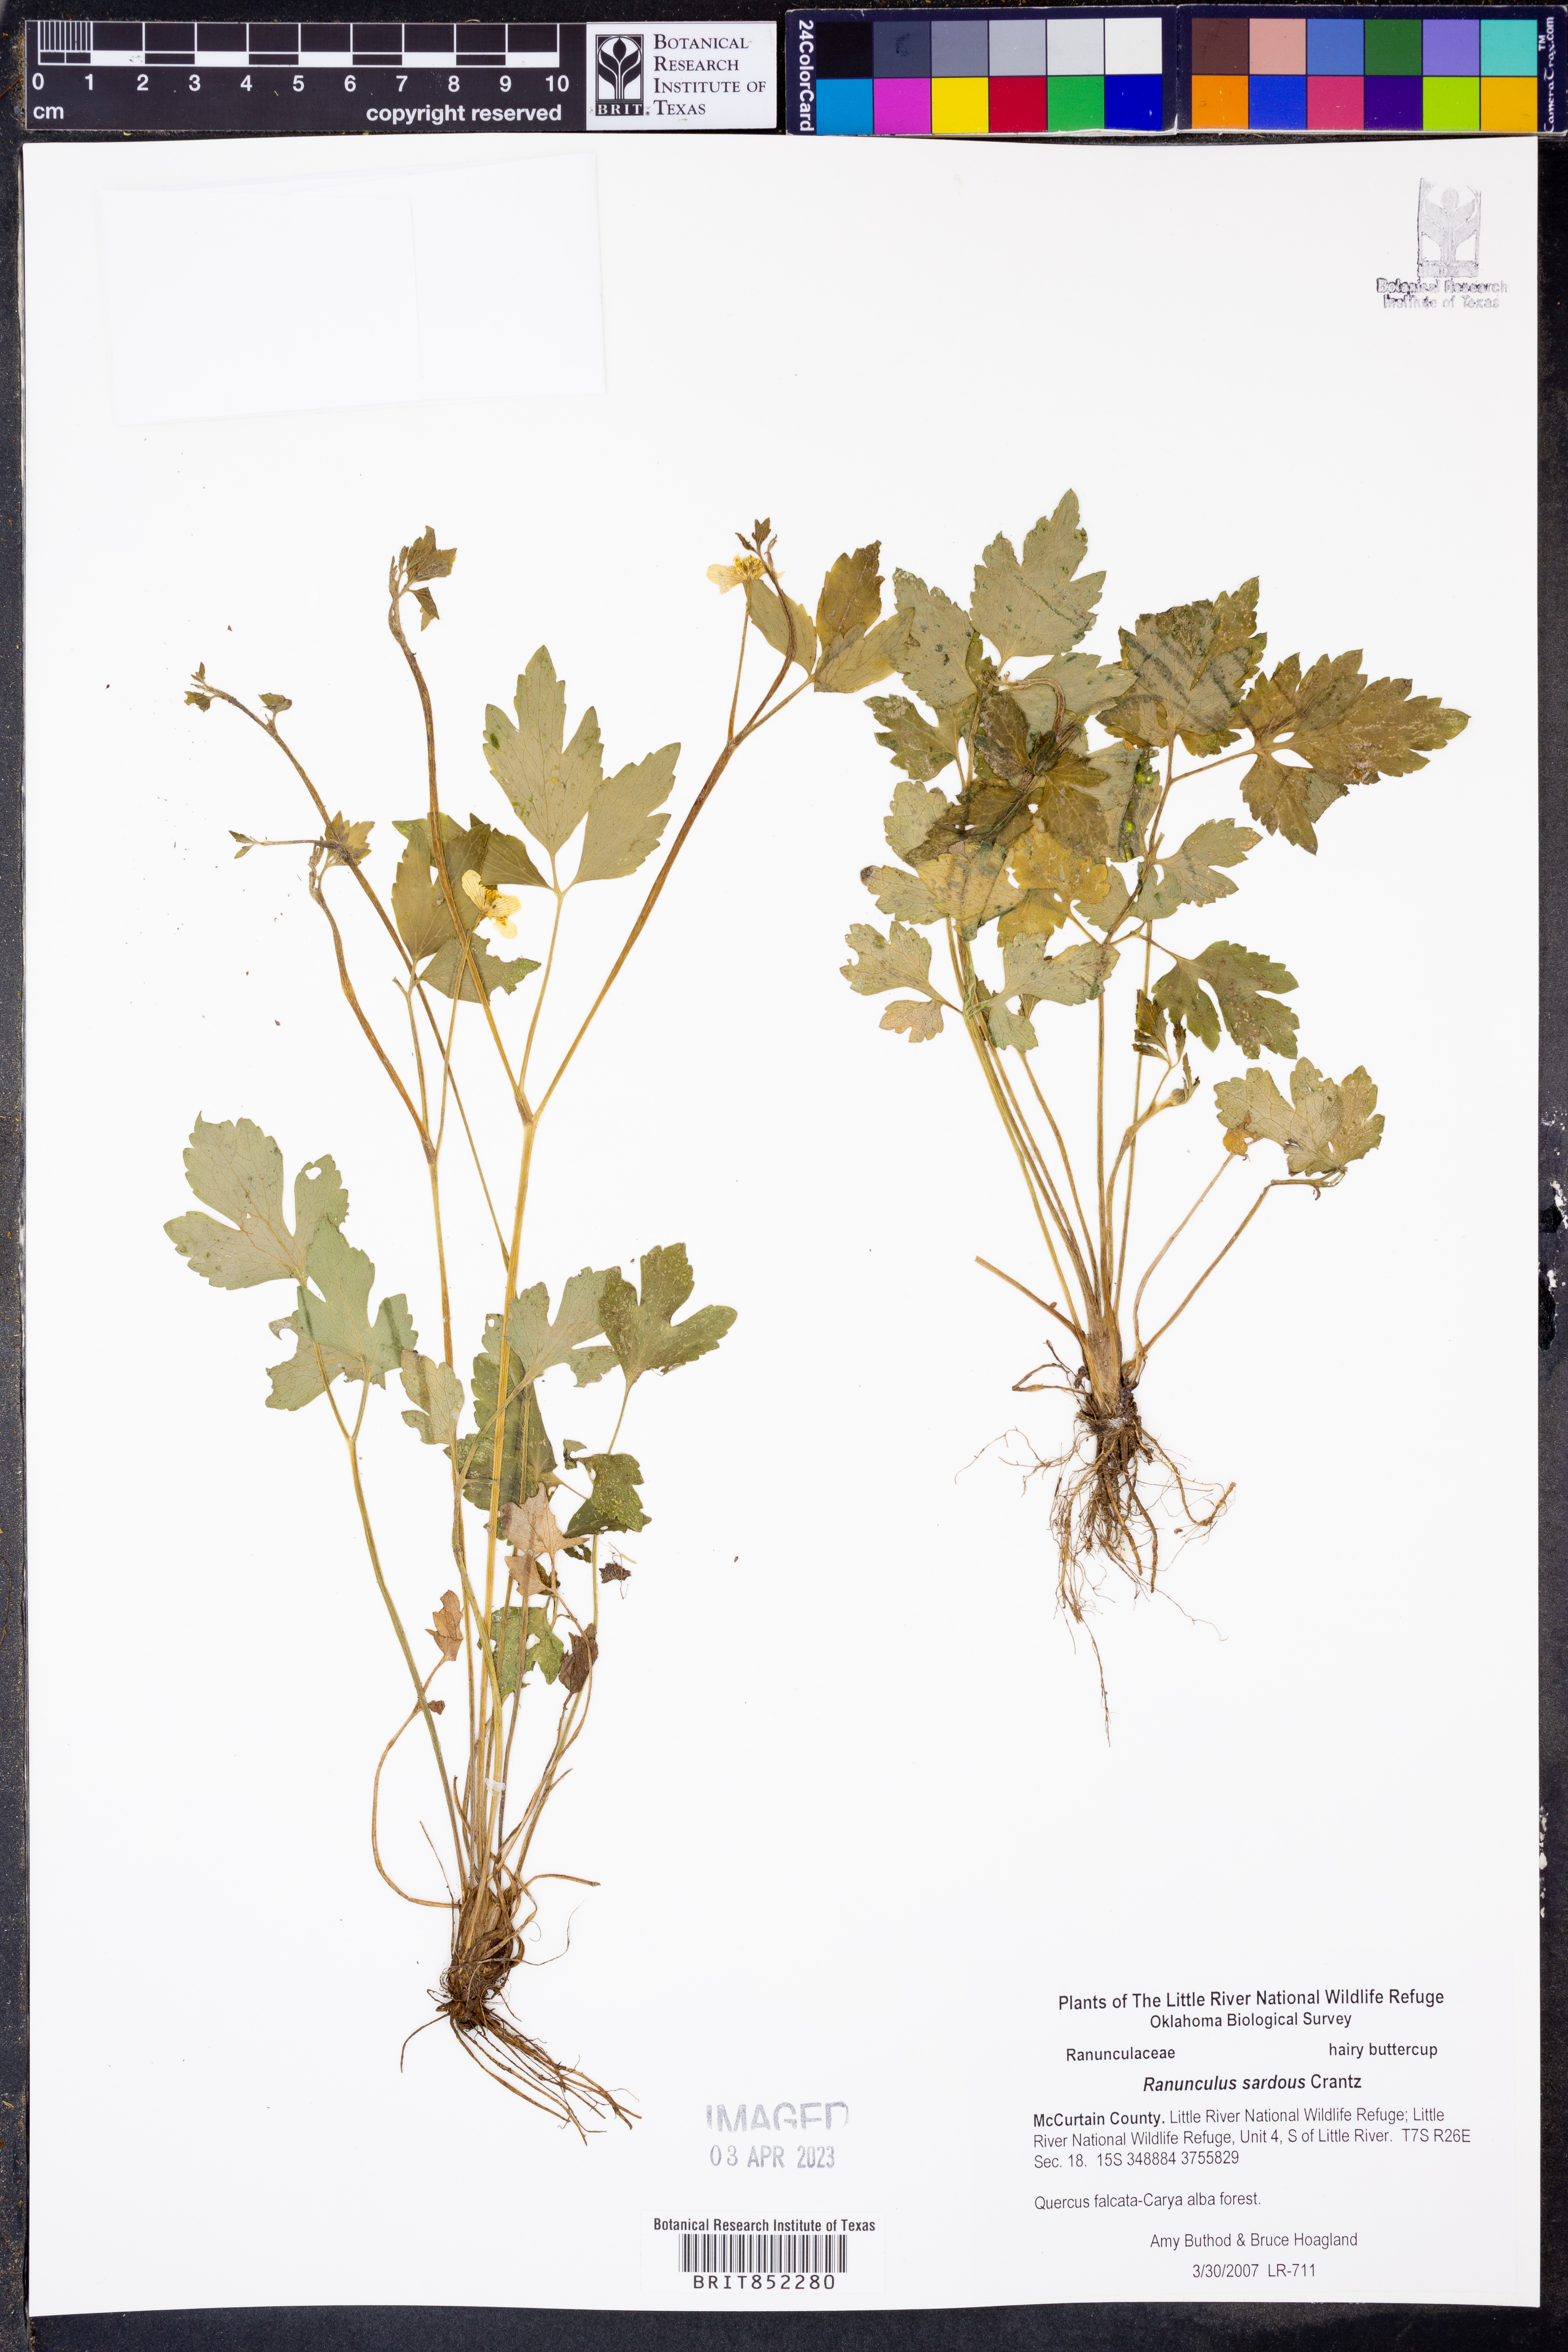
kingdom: Plantae
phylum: Tracheophyta
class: Magnoliopsida
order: Ranunculales
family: Ranunculaceae
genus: Ranunculus
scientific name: Ranunculus sardous
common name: Hairy buttercup
